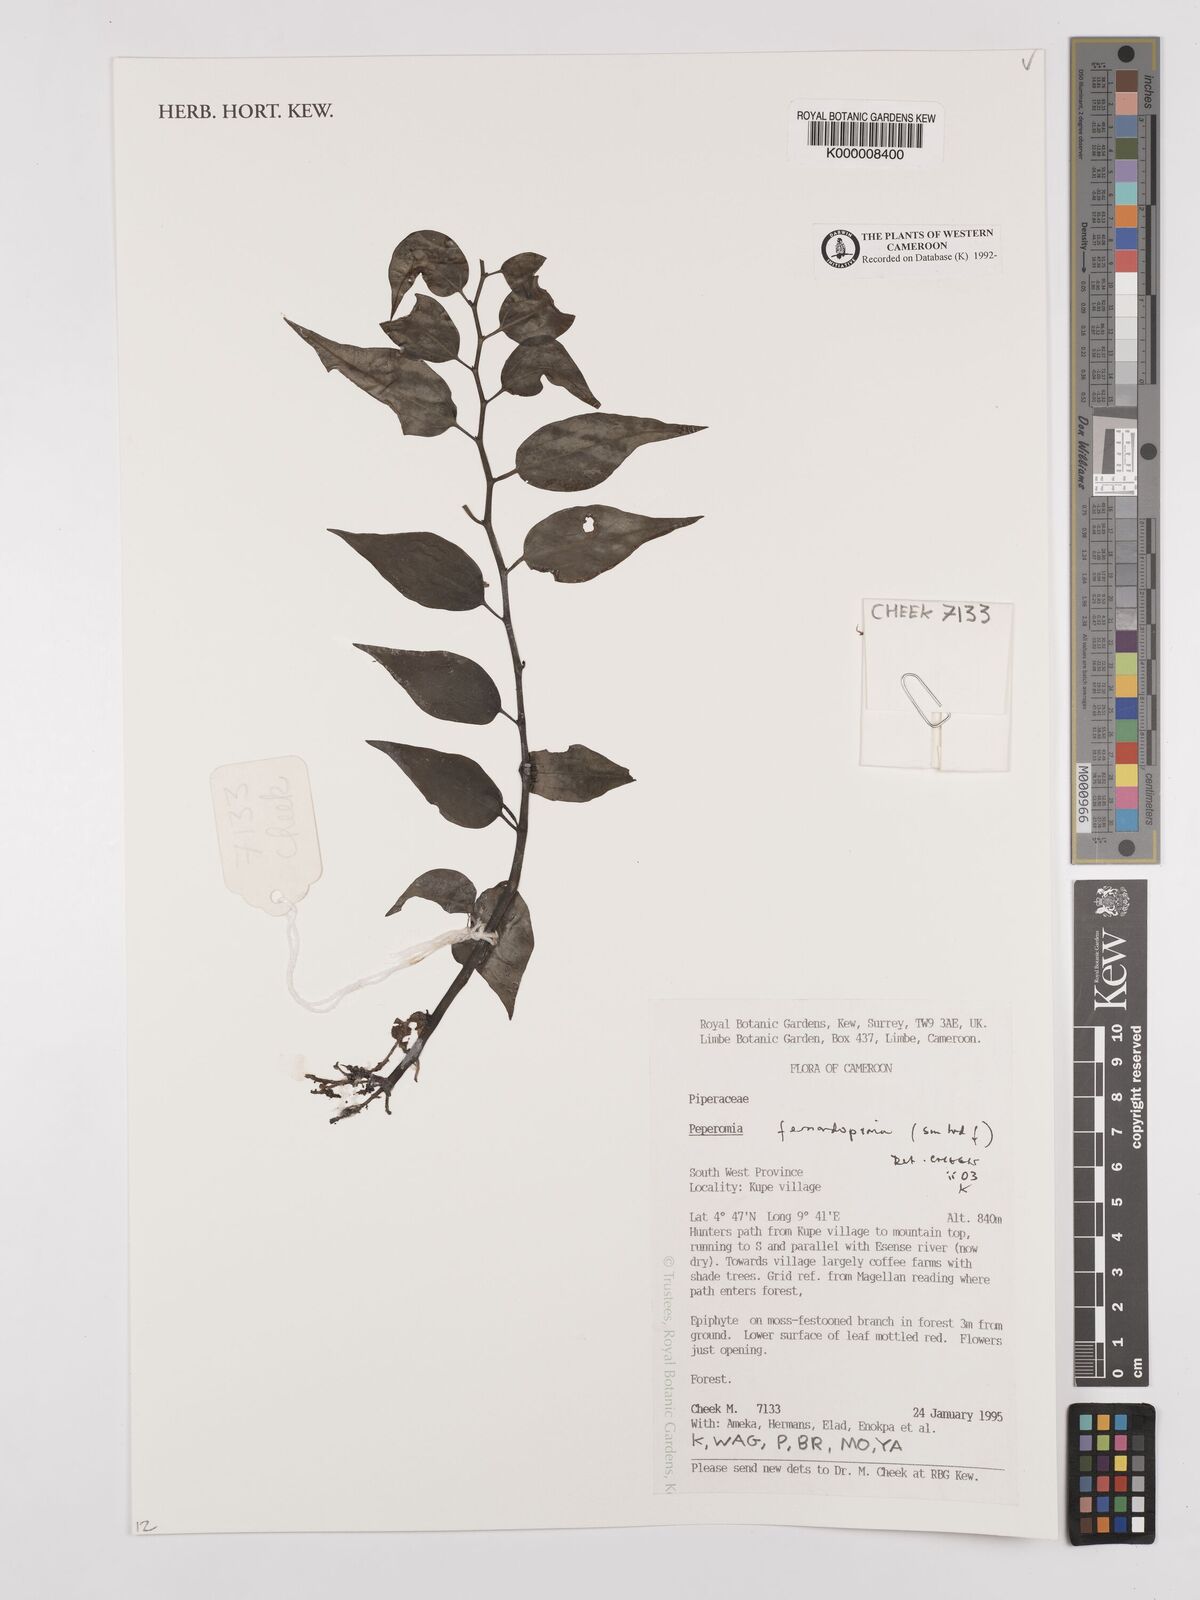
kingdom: Plantae
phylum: Tracheophyta
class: Magnoliopsida
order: Piperales
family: Piperaceae
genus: Peperomia
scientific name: Peperomia fernandopoiana
